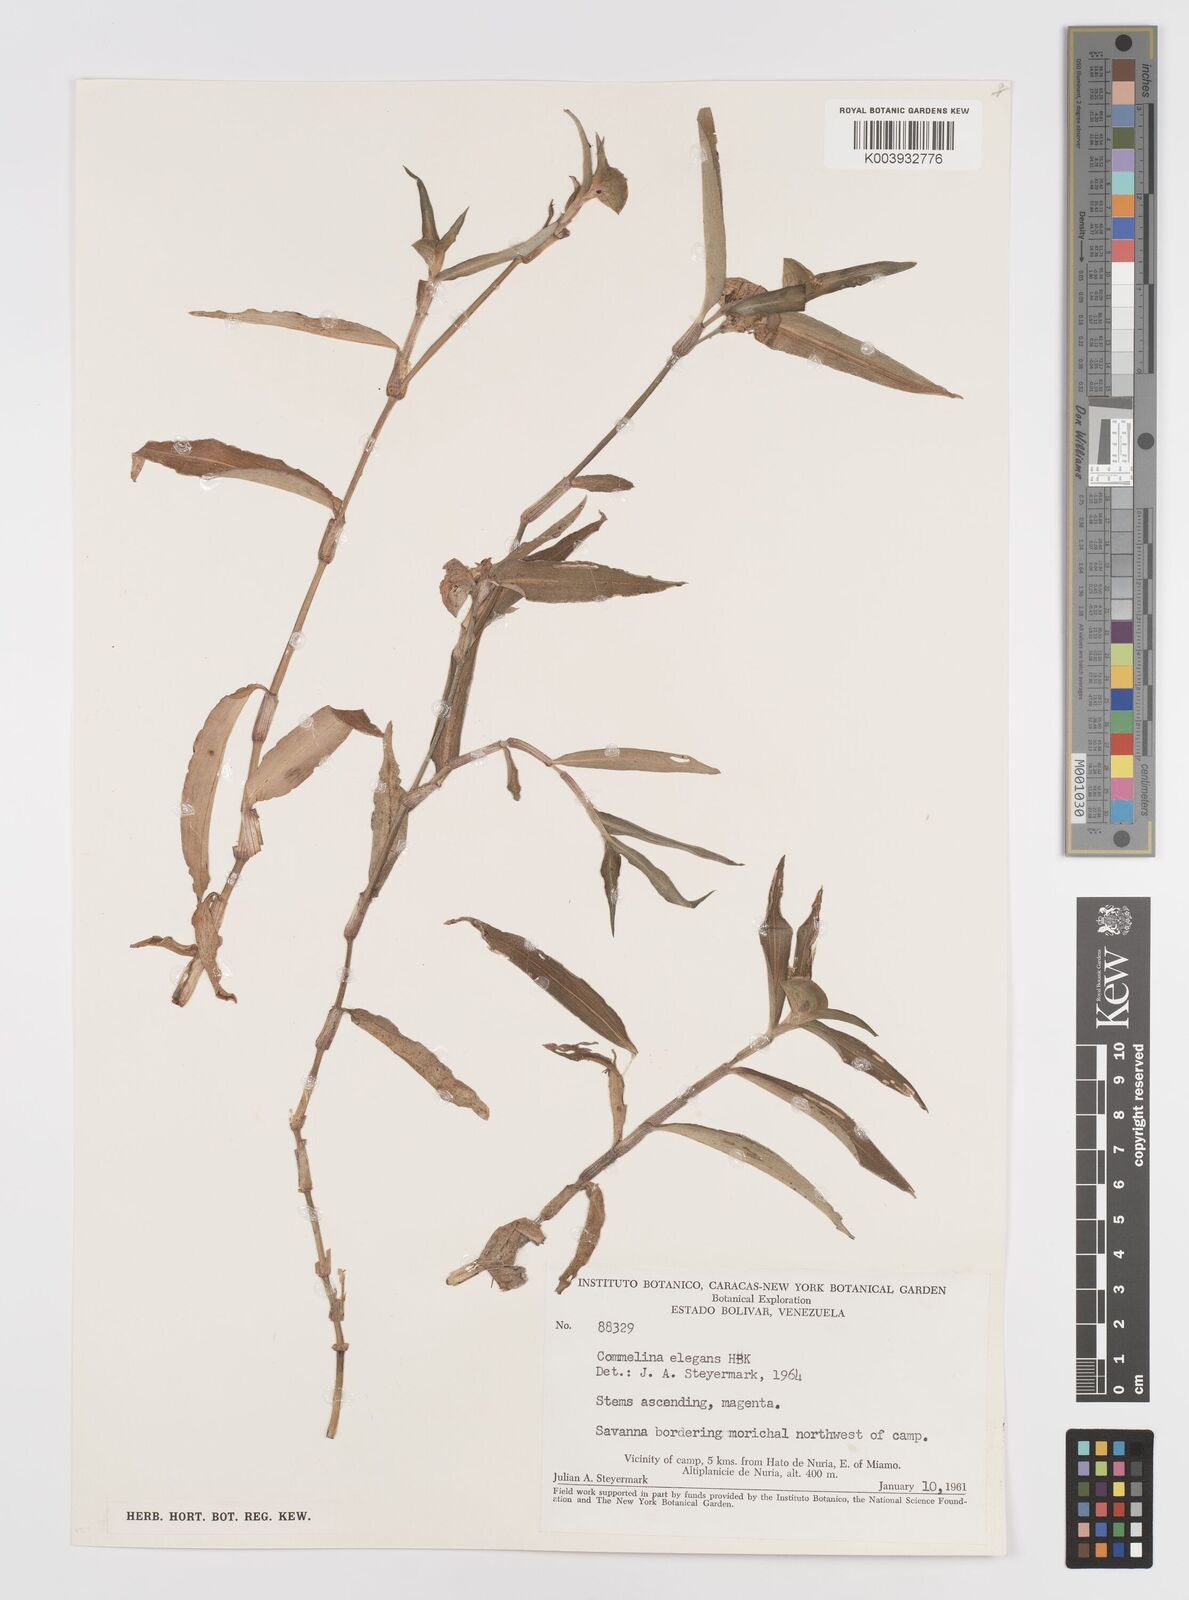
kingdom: Plantae
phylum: Tracheophyta
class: Liliopsida
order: Commelinales
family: Commelinaceae
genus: Commelina
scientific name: Commelina virginica
